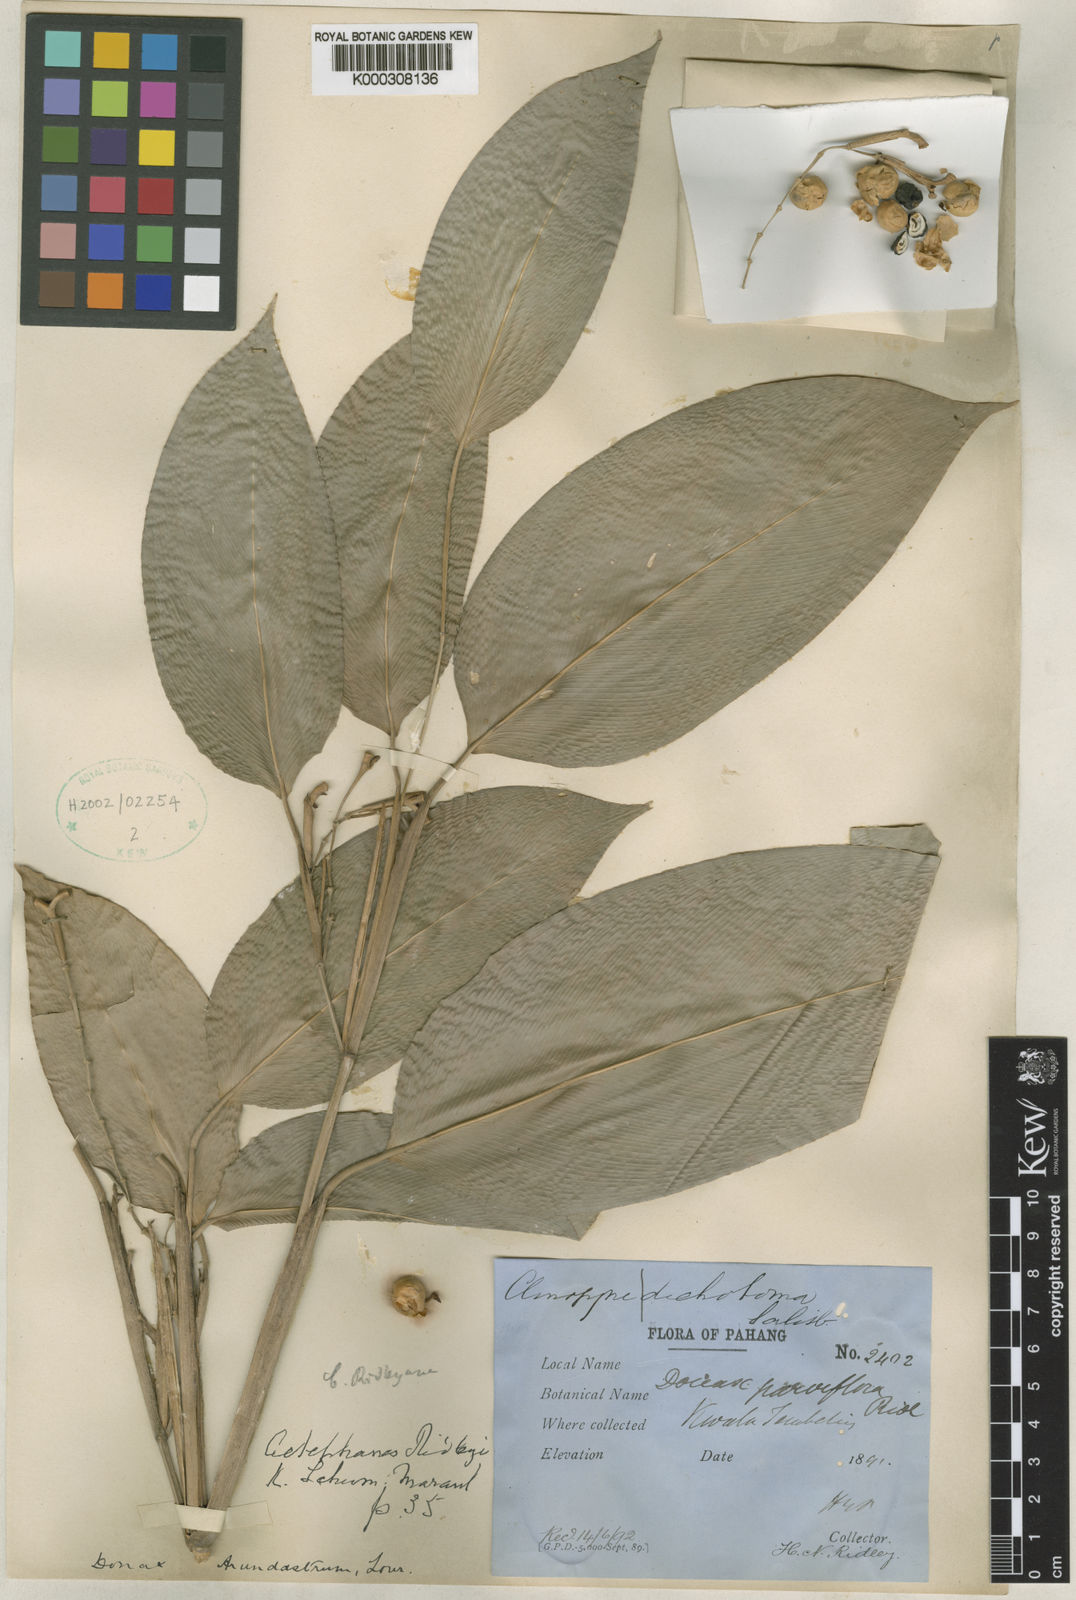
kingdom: Plantae
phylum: Tracheophyta
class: Liliopsida
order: Zingiberales
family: Marantaceae
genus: Donax
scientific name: Donax canniformis
